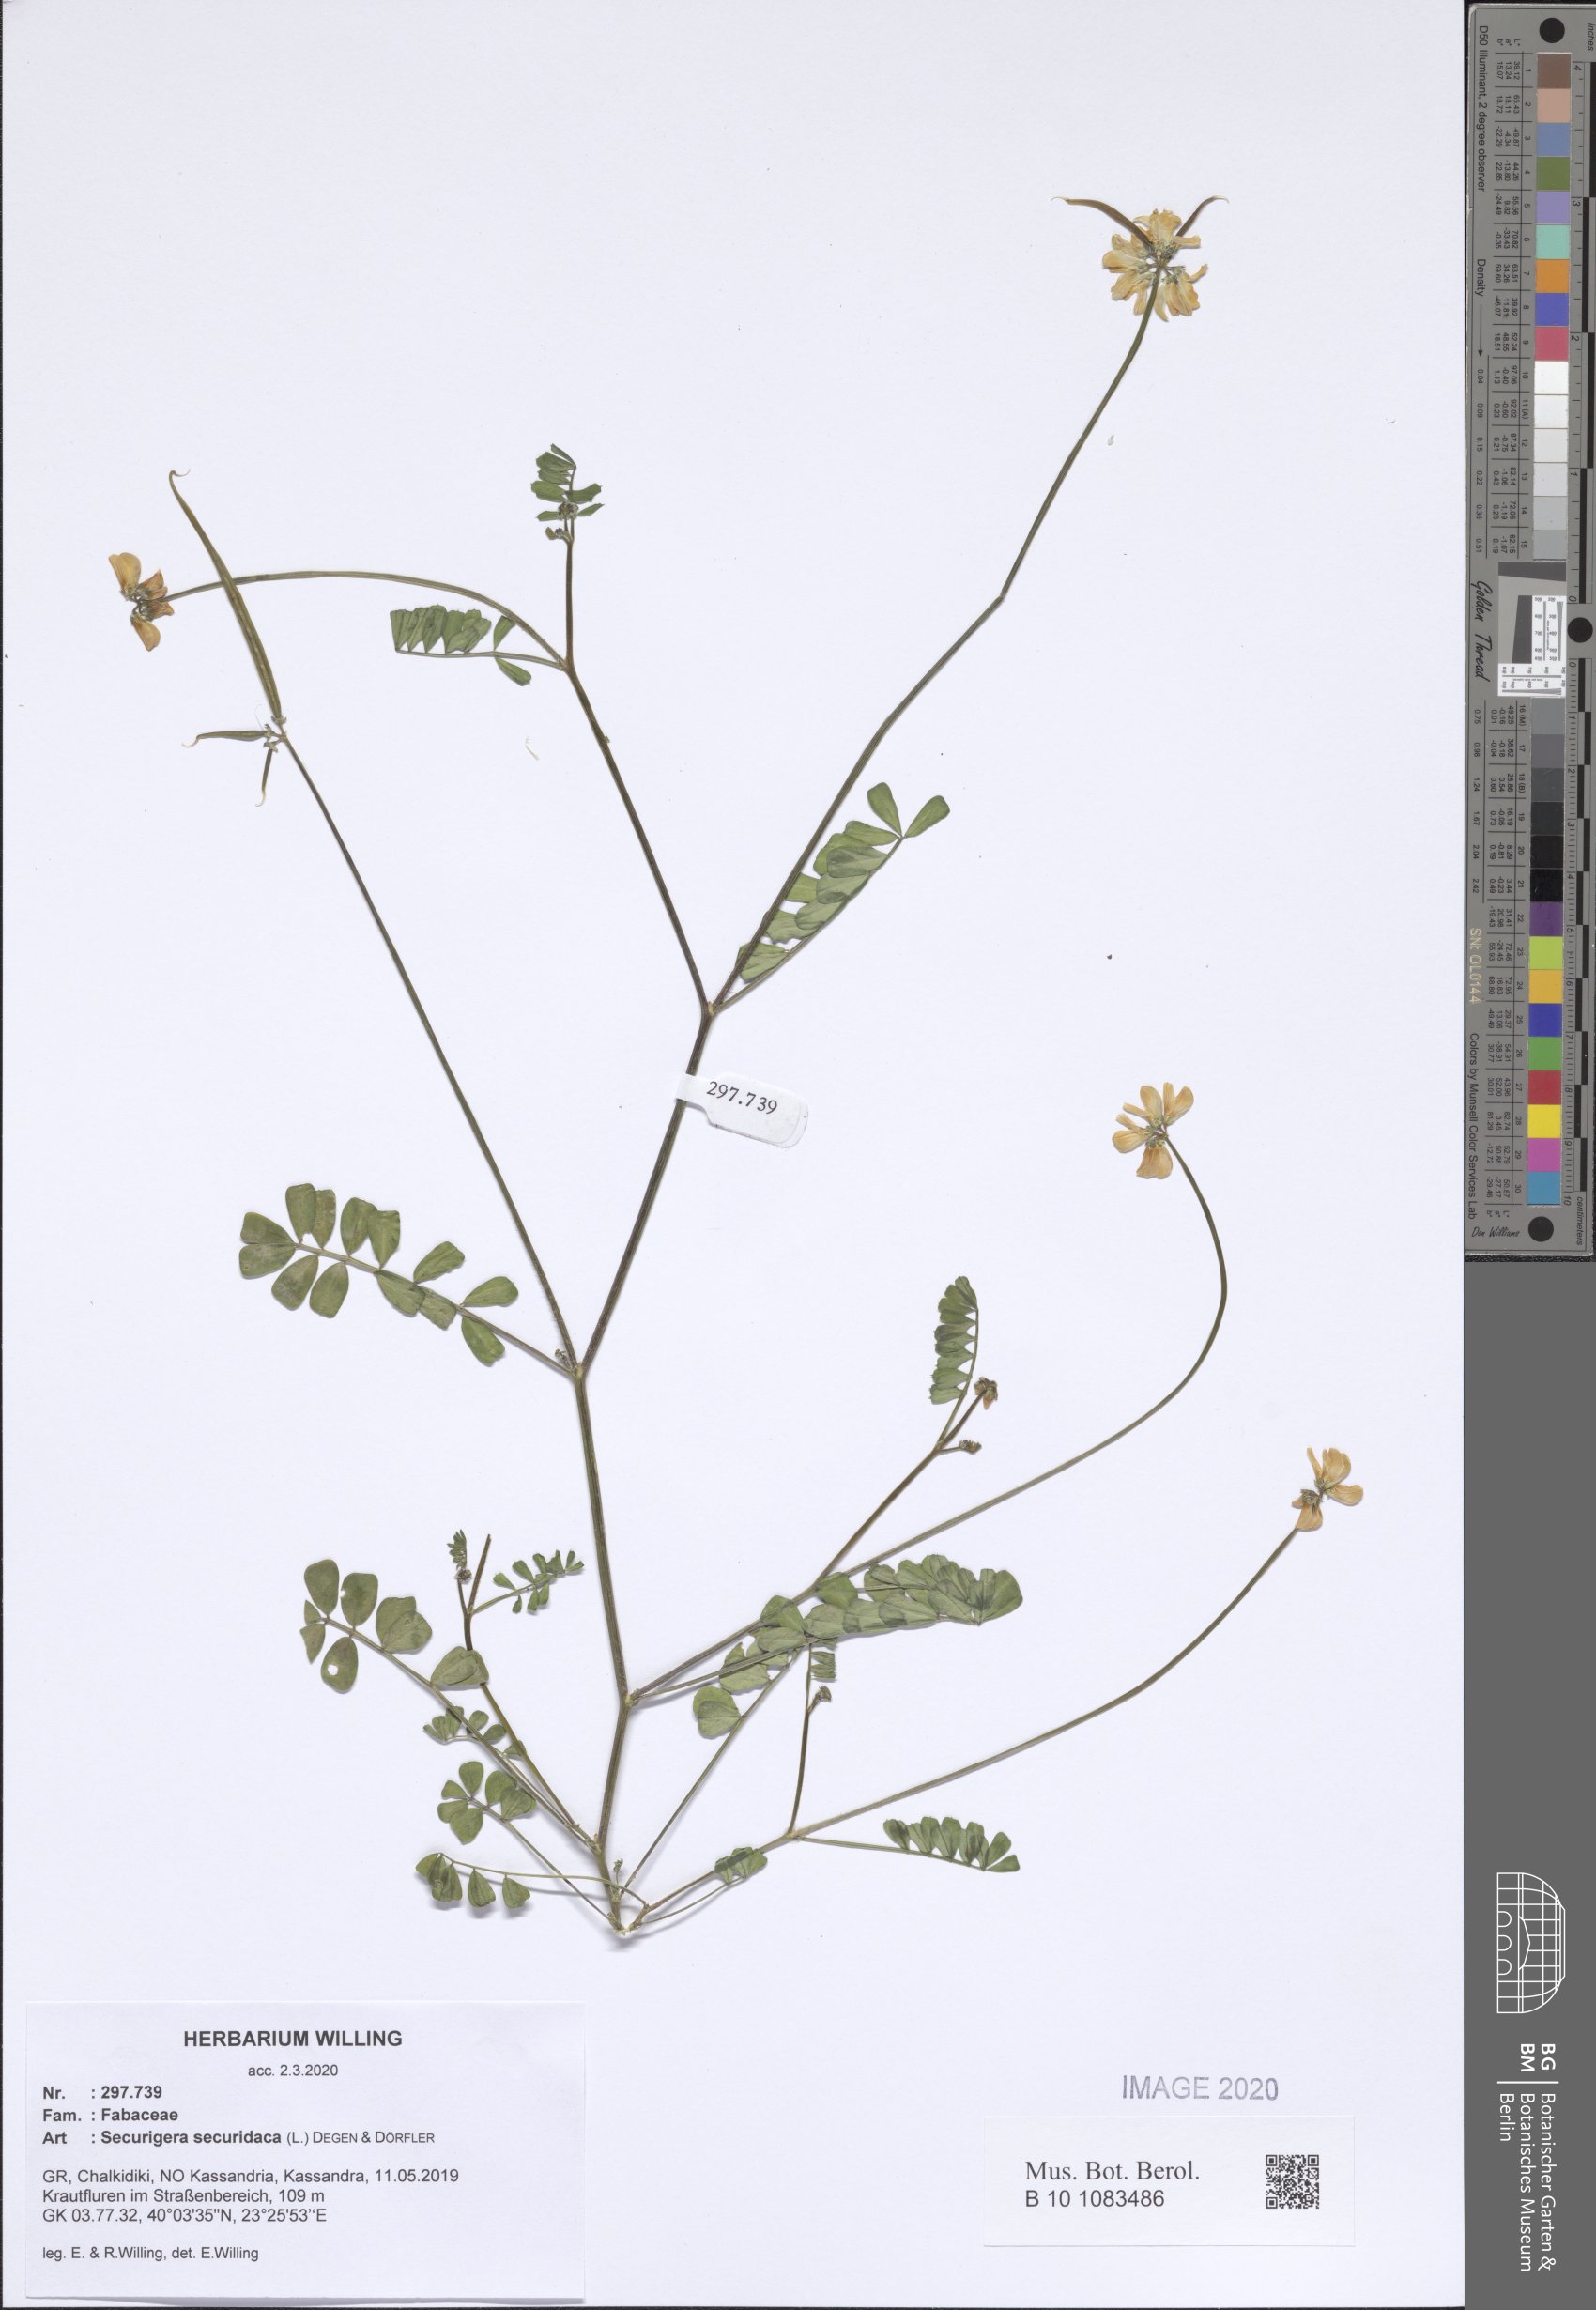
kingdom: Plantae
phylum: Tracheophyta
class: Magnoliopsida
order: Fabales
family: Fabaceae
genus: Coronilla
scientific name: Coronilla securidaca
